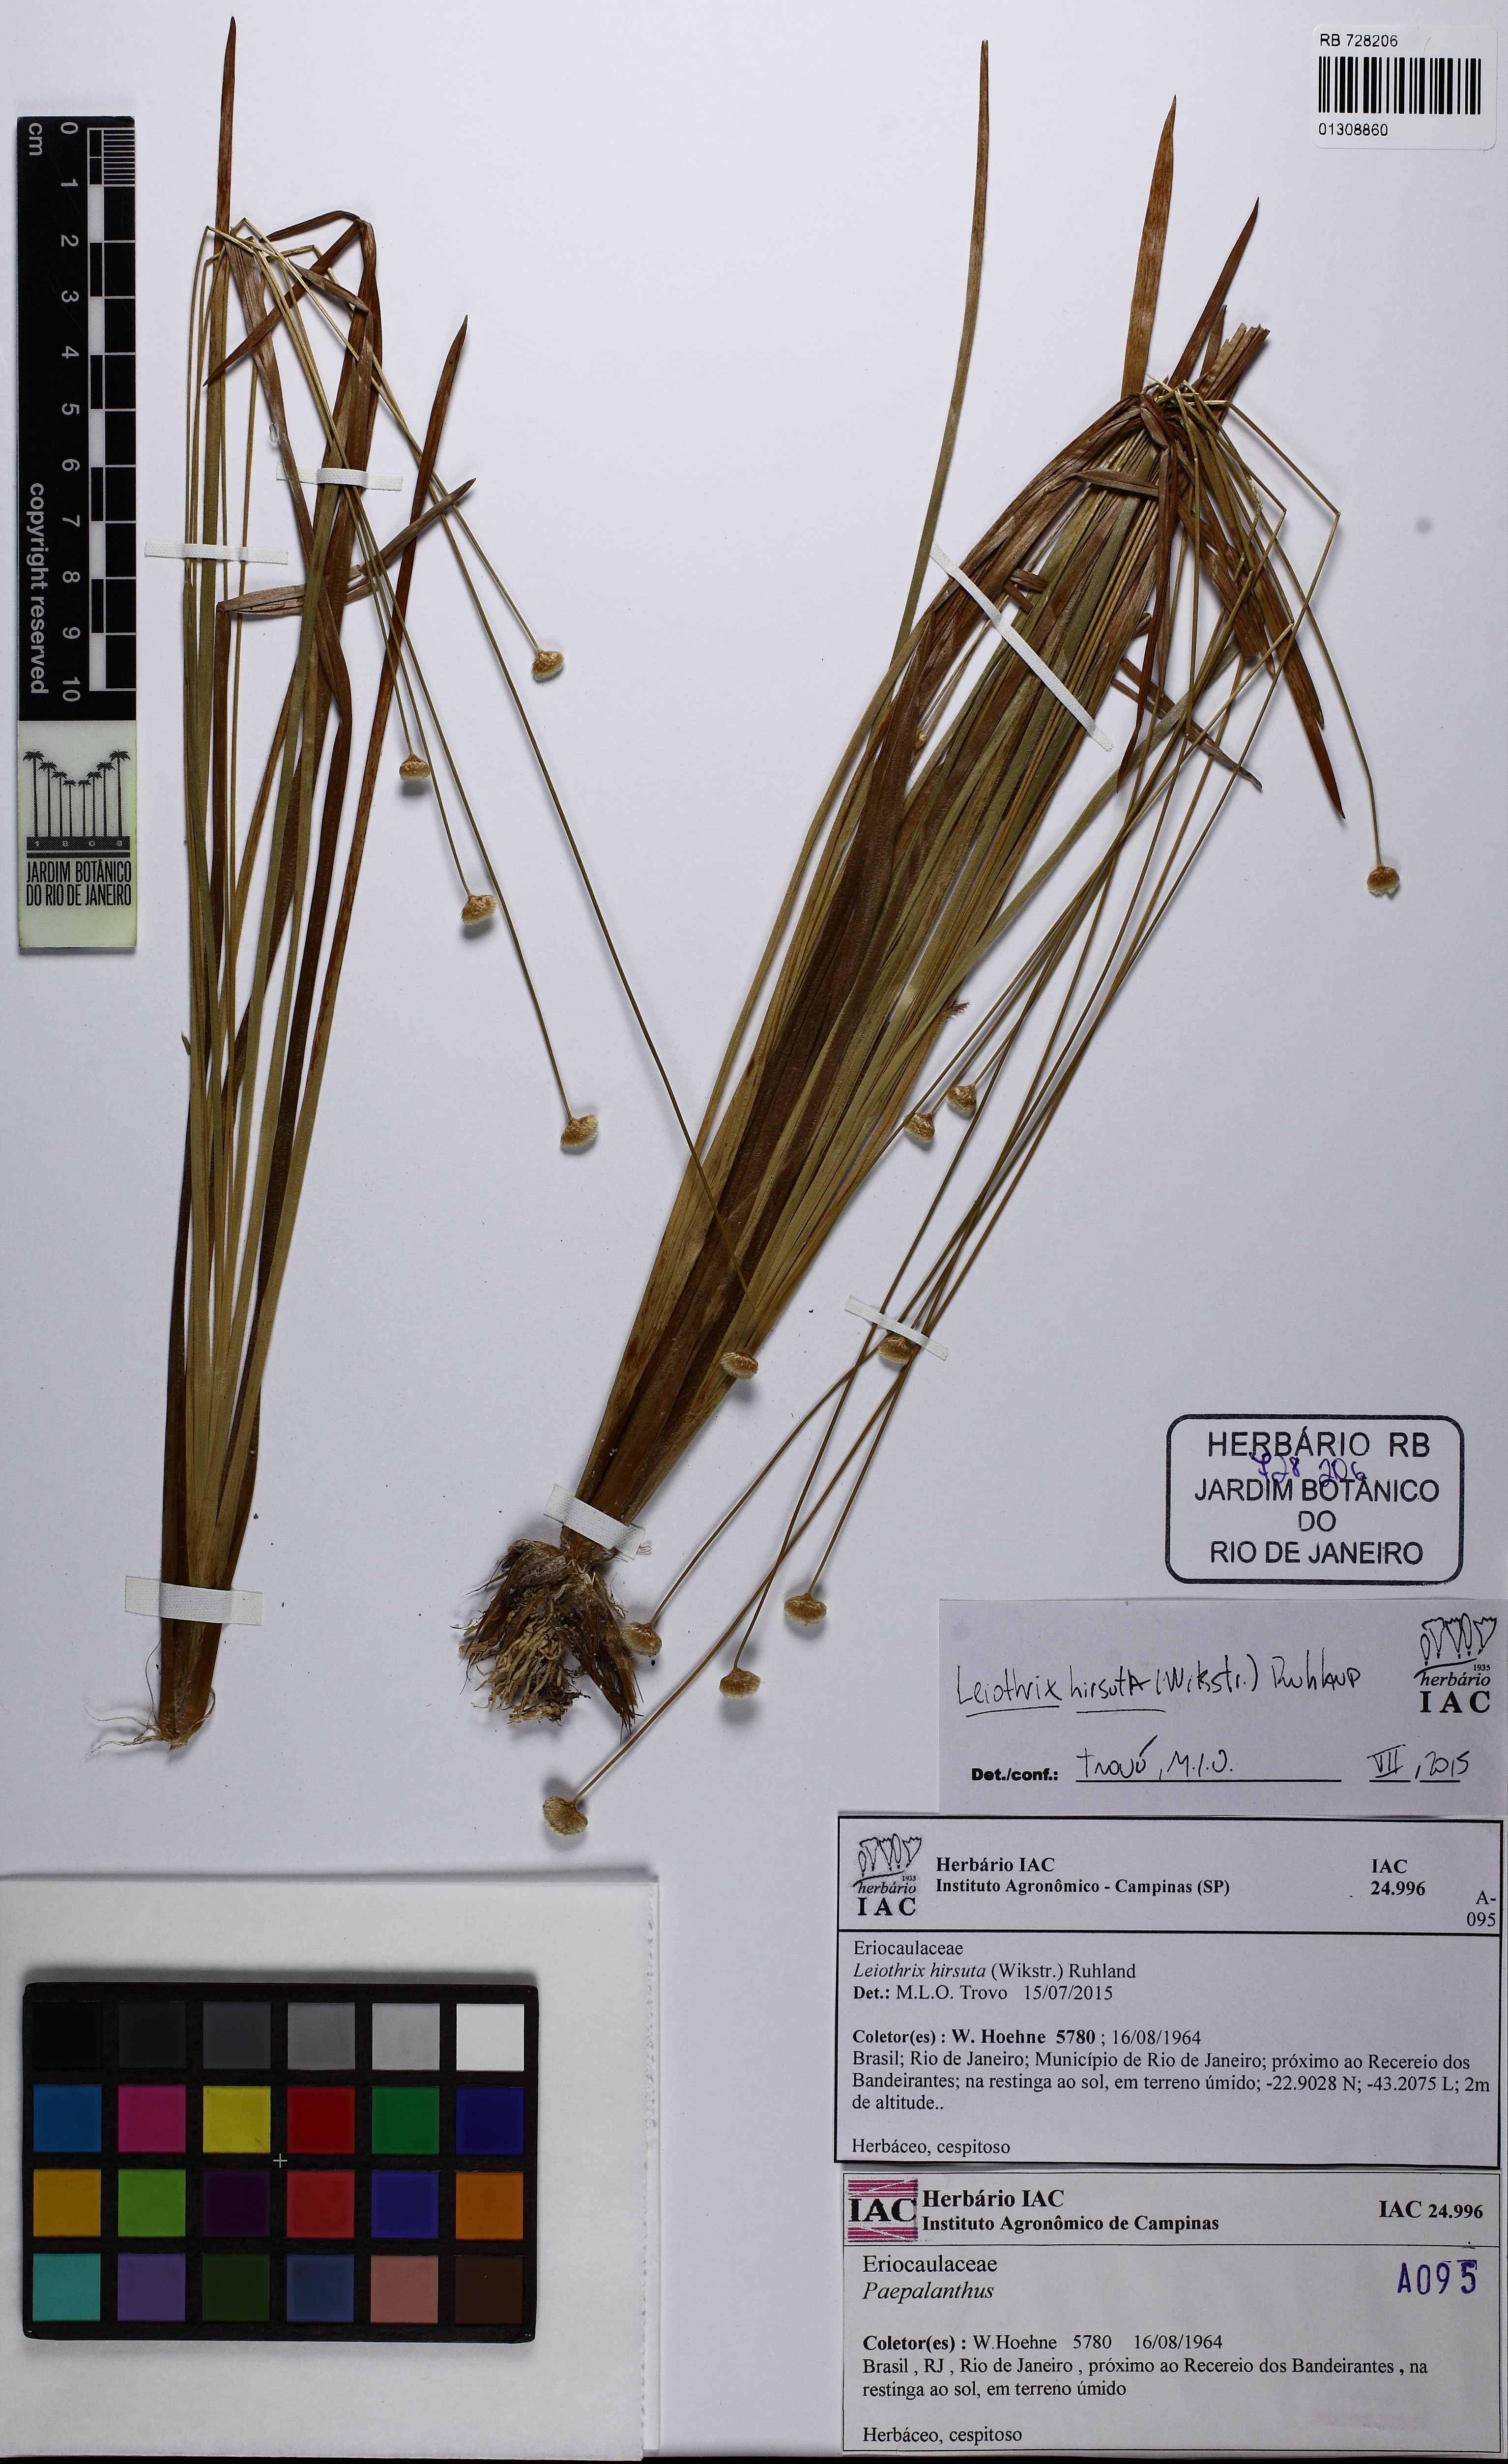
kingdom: Plantae
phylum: Tracheophyta
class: Liliopsida
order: Poales
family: Eriocaulaceae
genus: Leiothrix
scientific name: Leiothrix hirsuta
